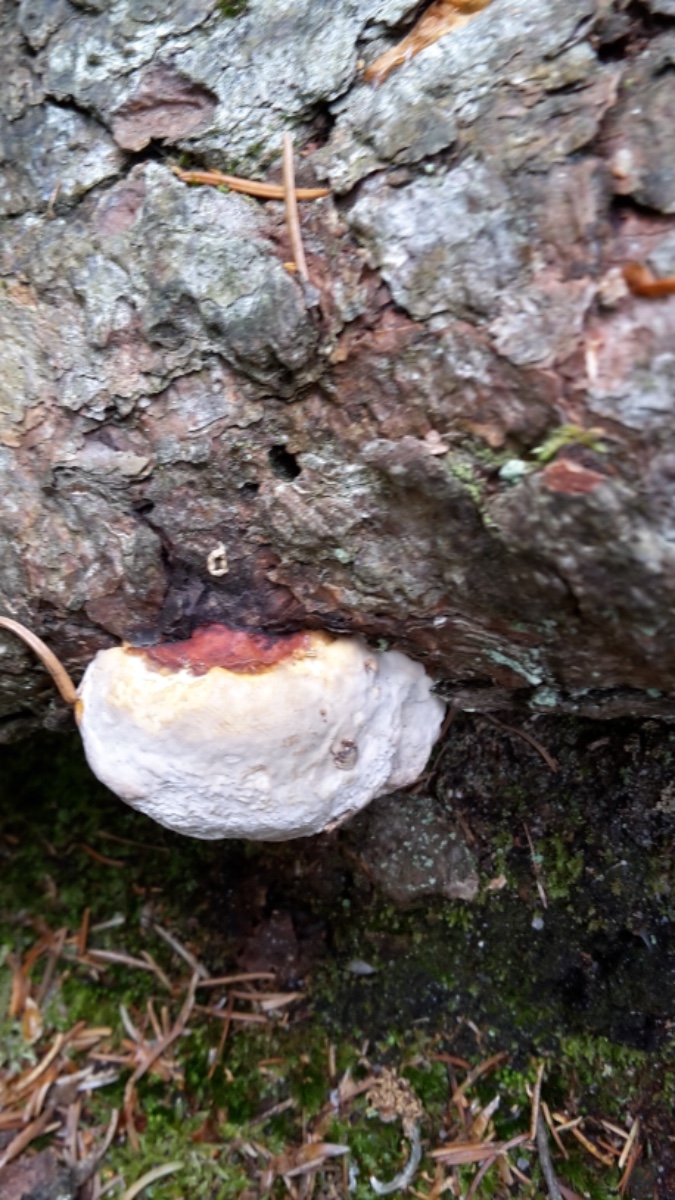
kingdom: Fungi
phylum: Basidiomycota
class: Agaricomycetes
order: Polyporales
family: Fomitopsidaceae
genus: Fomitopsis
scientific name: Fomitopsis pinicola
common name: randbæltet hovporesvamp
